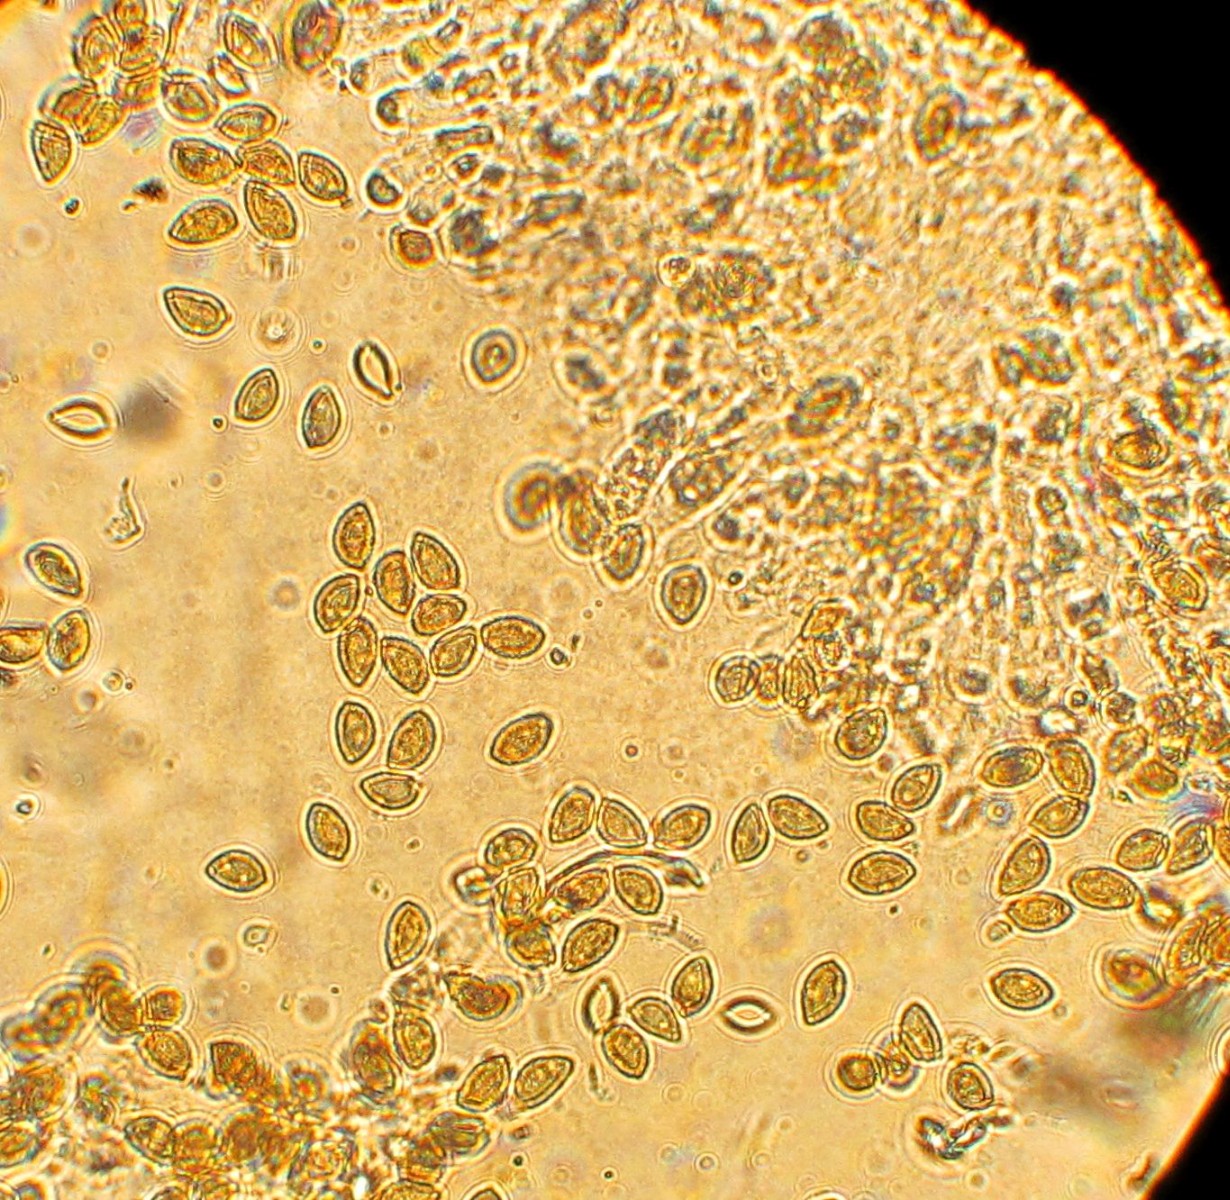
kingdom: Fungi
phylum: Basidiomycota
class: Agaricomycetes
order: Agaricales
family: Hymenogastraceae
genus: Hebeloma
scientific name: Hebeloma
